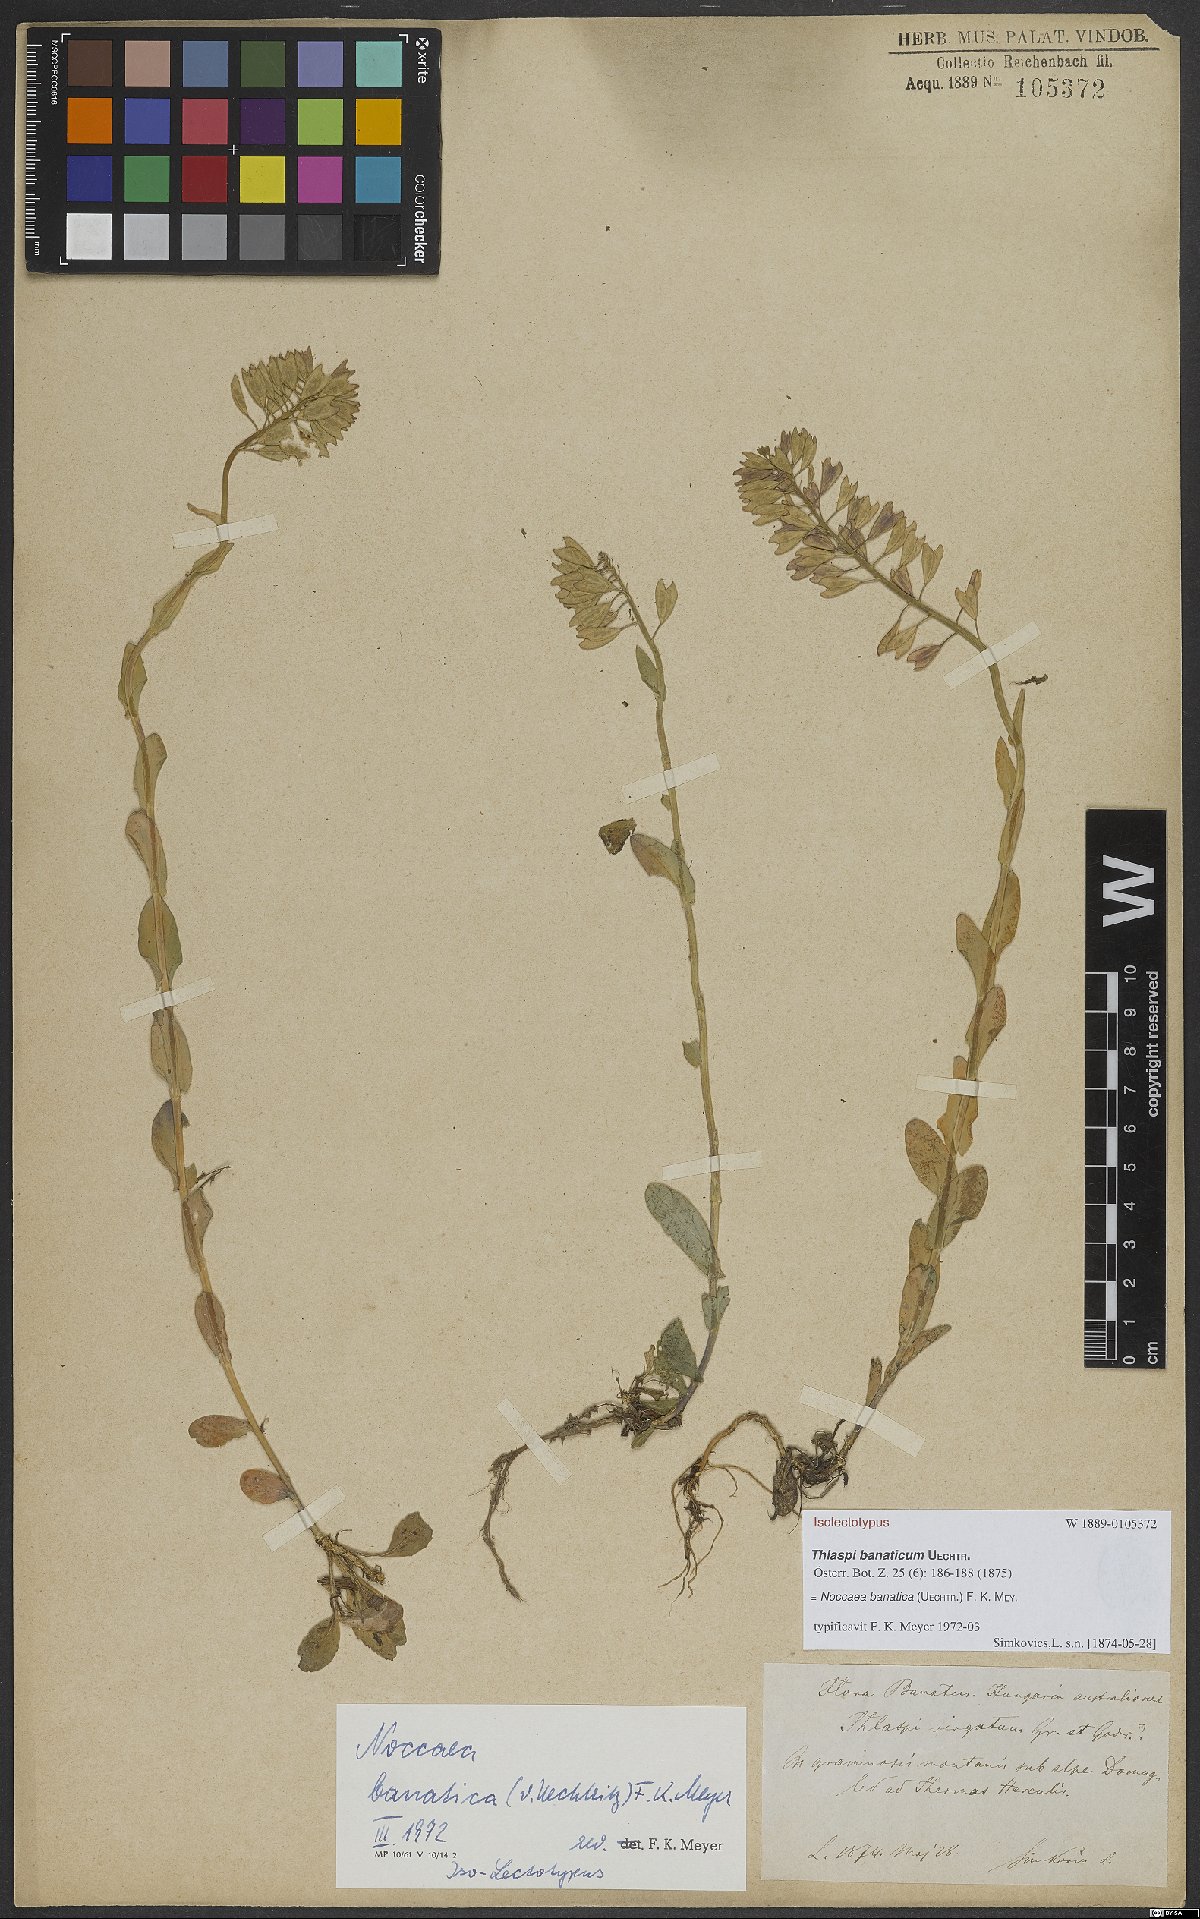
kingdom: Plantae
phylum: Tracheophyta
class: Magnoliopsida
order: Brassicales
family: Brassicaceae
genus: Noccaea
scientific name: Noccaea banatica
